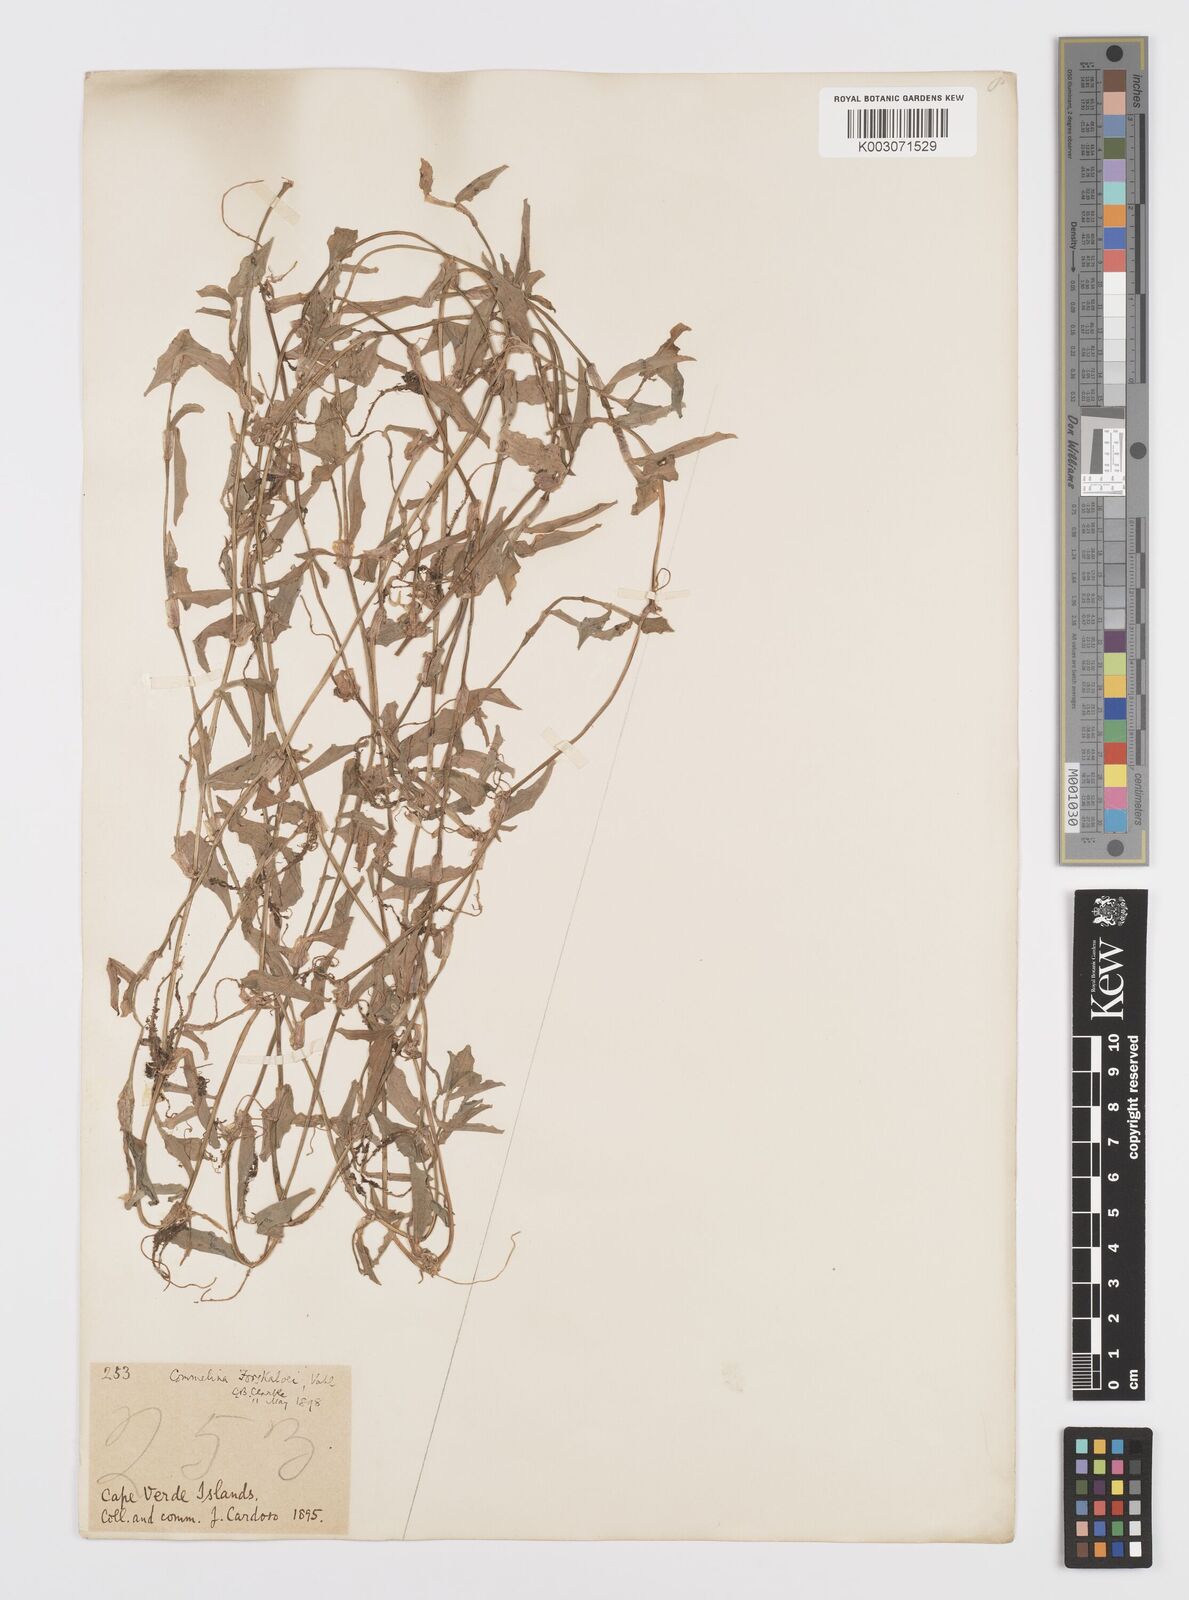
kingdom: Plantae
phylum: Tracheophyta
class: Liliopsida
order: Commelinales
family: Commelinaceae
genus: Commelina
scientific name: Commelina forskaolii
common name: Rat's ear
